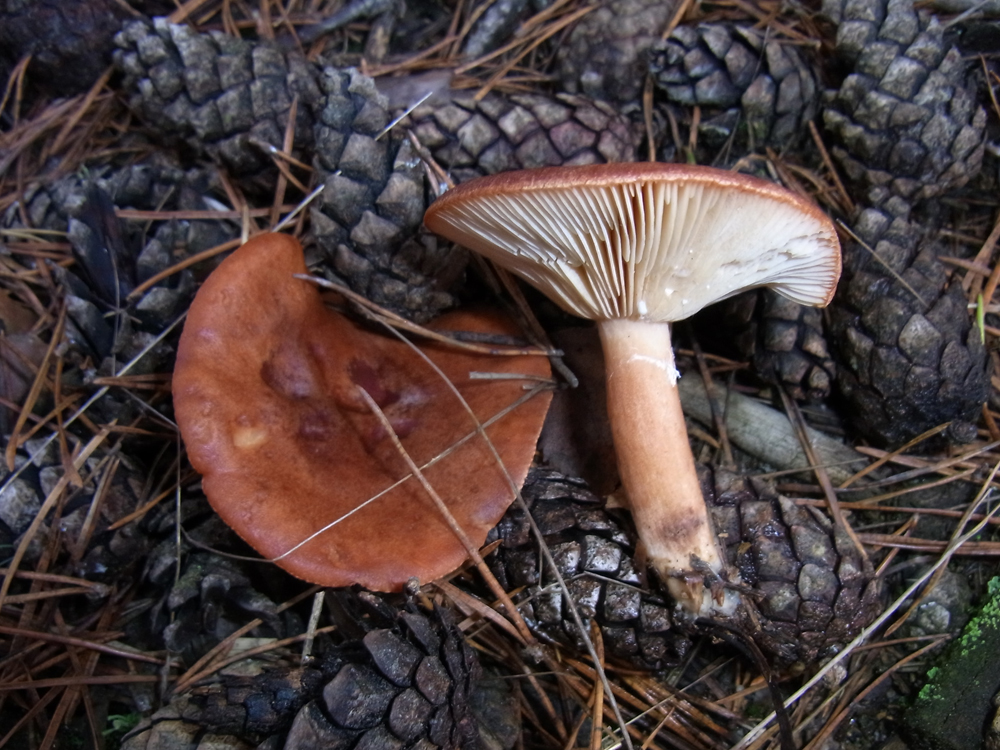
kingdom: Fungi
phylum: Basidiomycota
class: Agaricomycetes
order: Russulales
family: Russulaceae
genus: Lactarius
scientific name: Lactarius rufus
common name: Rufous milk-cap
